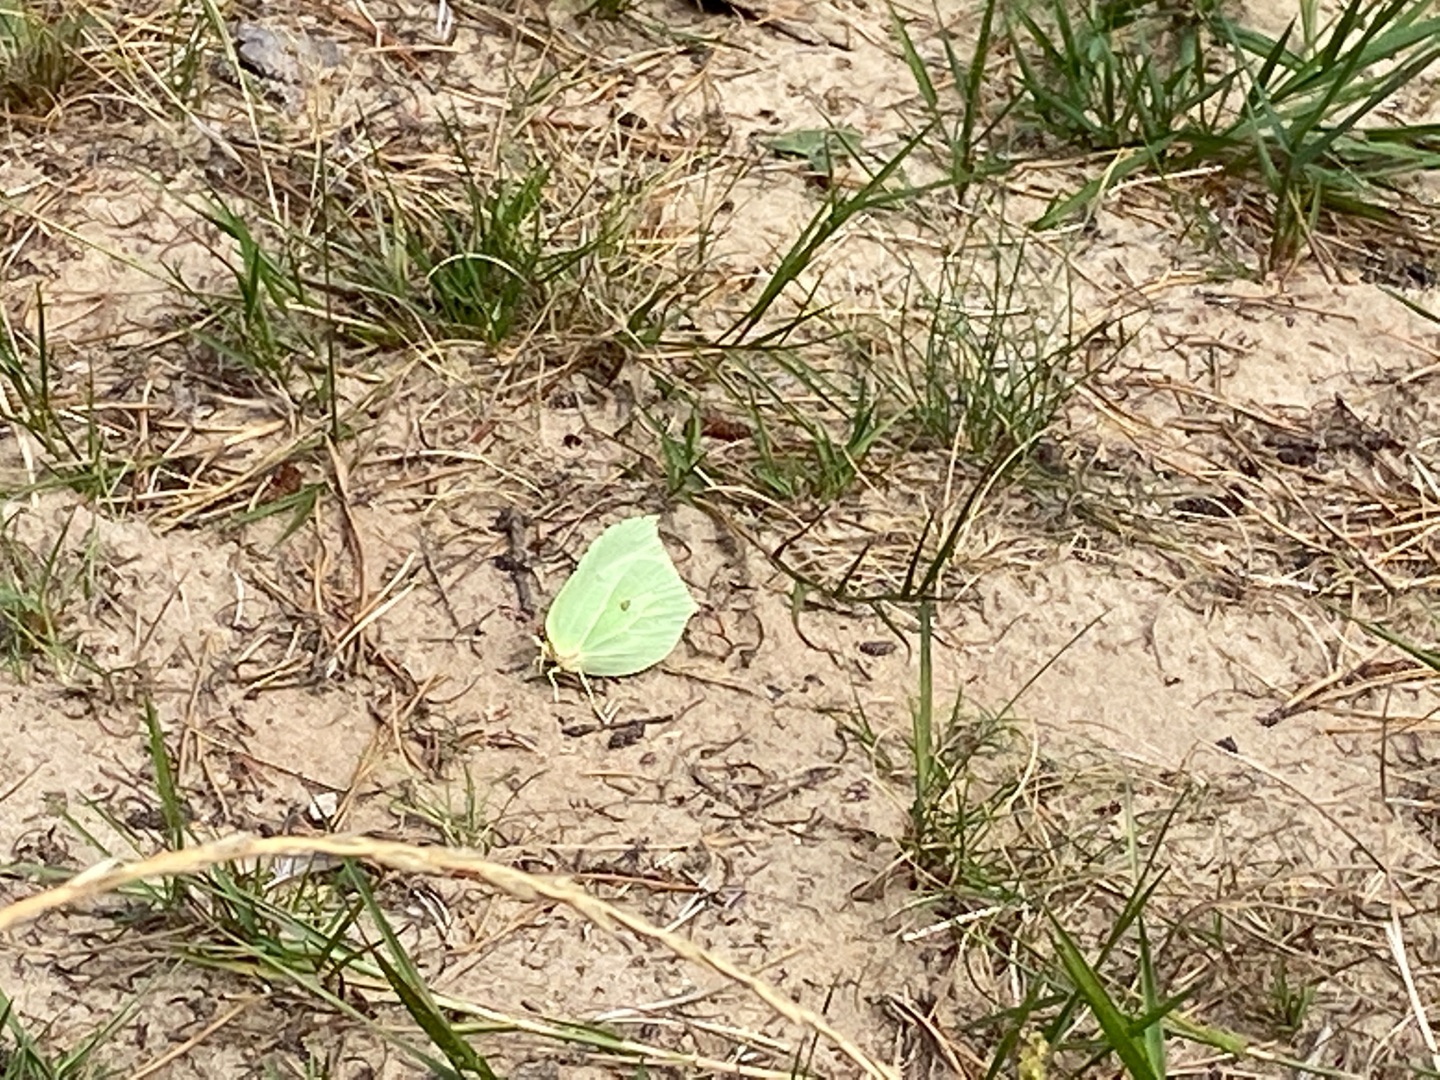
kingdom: Animalia
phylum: Arthropoda
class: Insecta
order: Lepidoptera
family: Pieridae
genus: Gonepteryx
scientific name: Gonepteryx rhamni
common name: Citronsommerfugl
